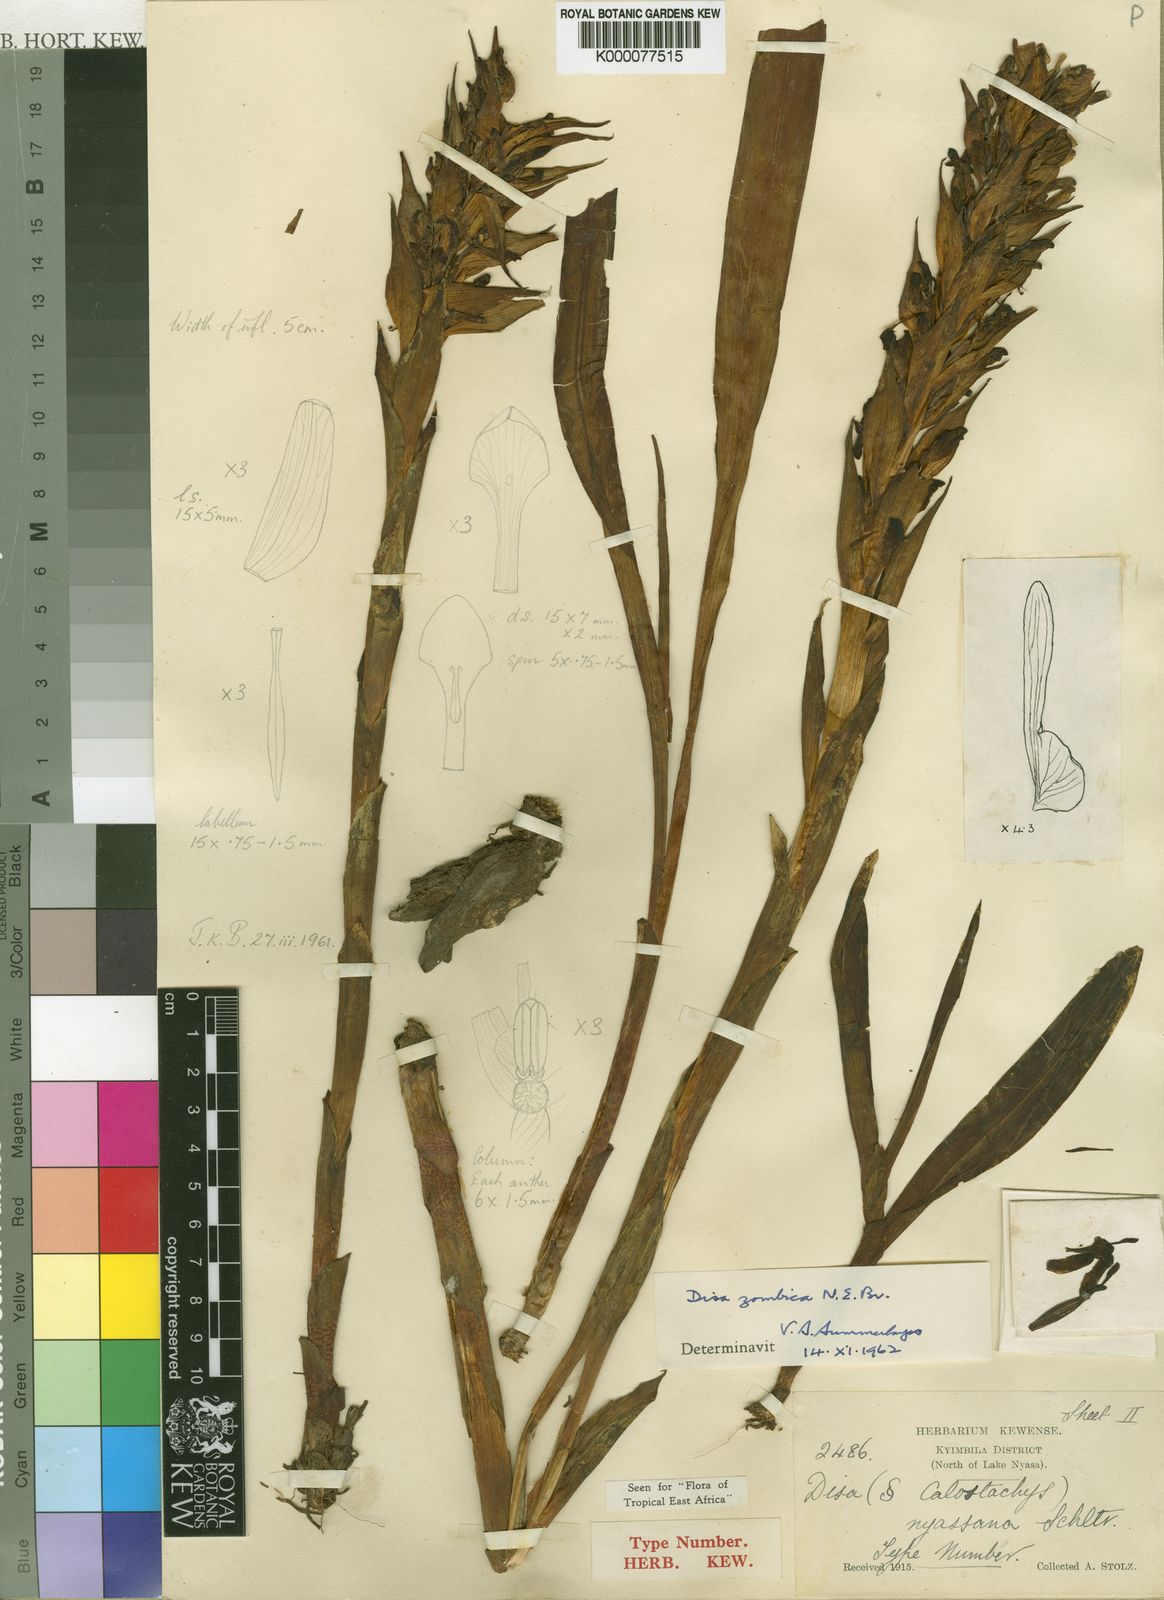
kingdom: Plantae
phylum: Tracheophyta
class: Liliopsida
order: Asparagales
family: Orchidaceae
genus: Disa
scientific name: Disa zombica
